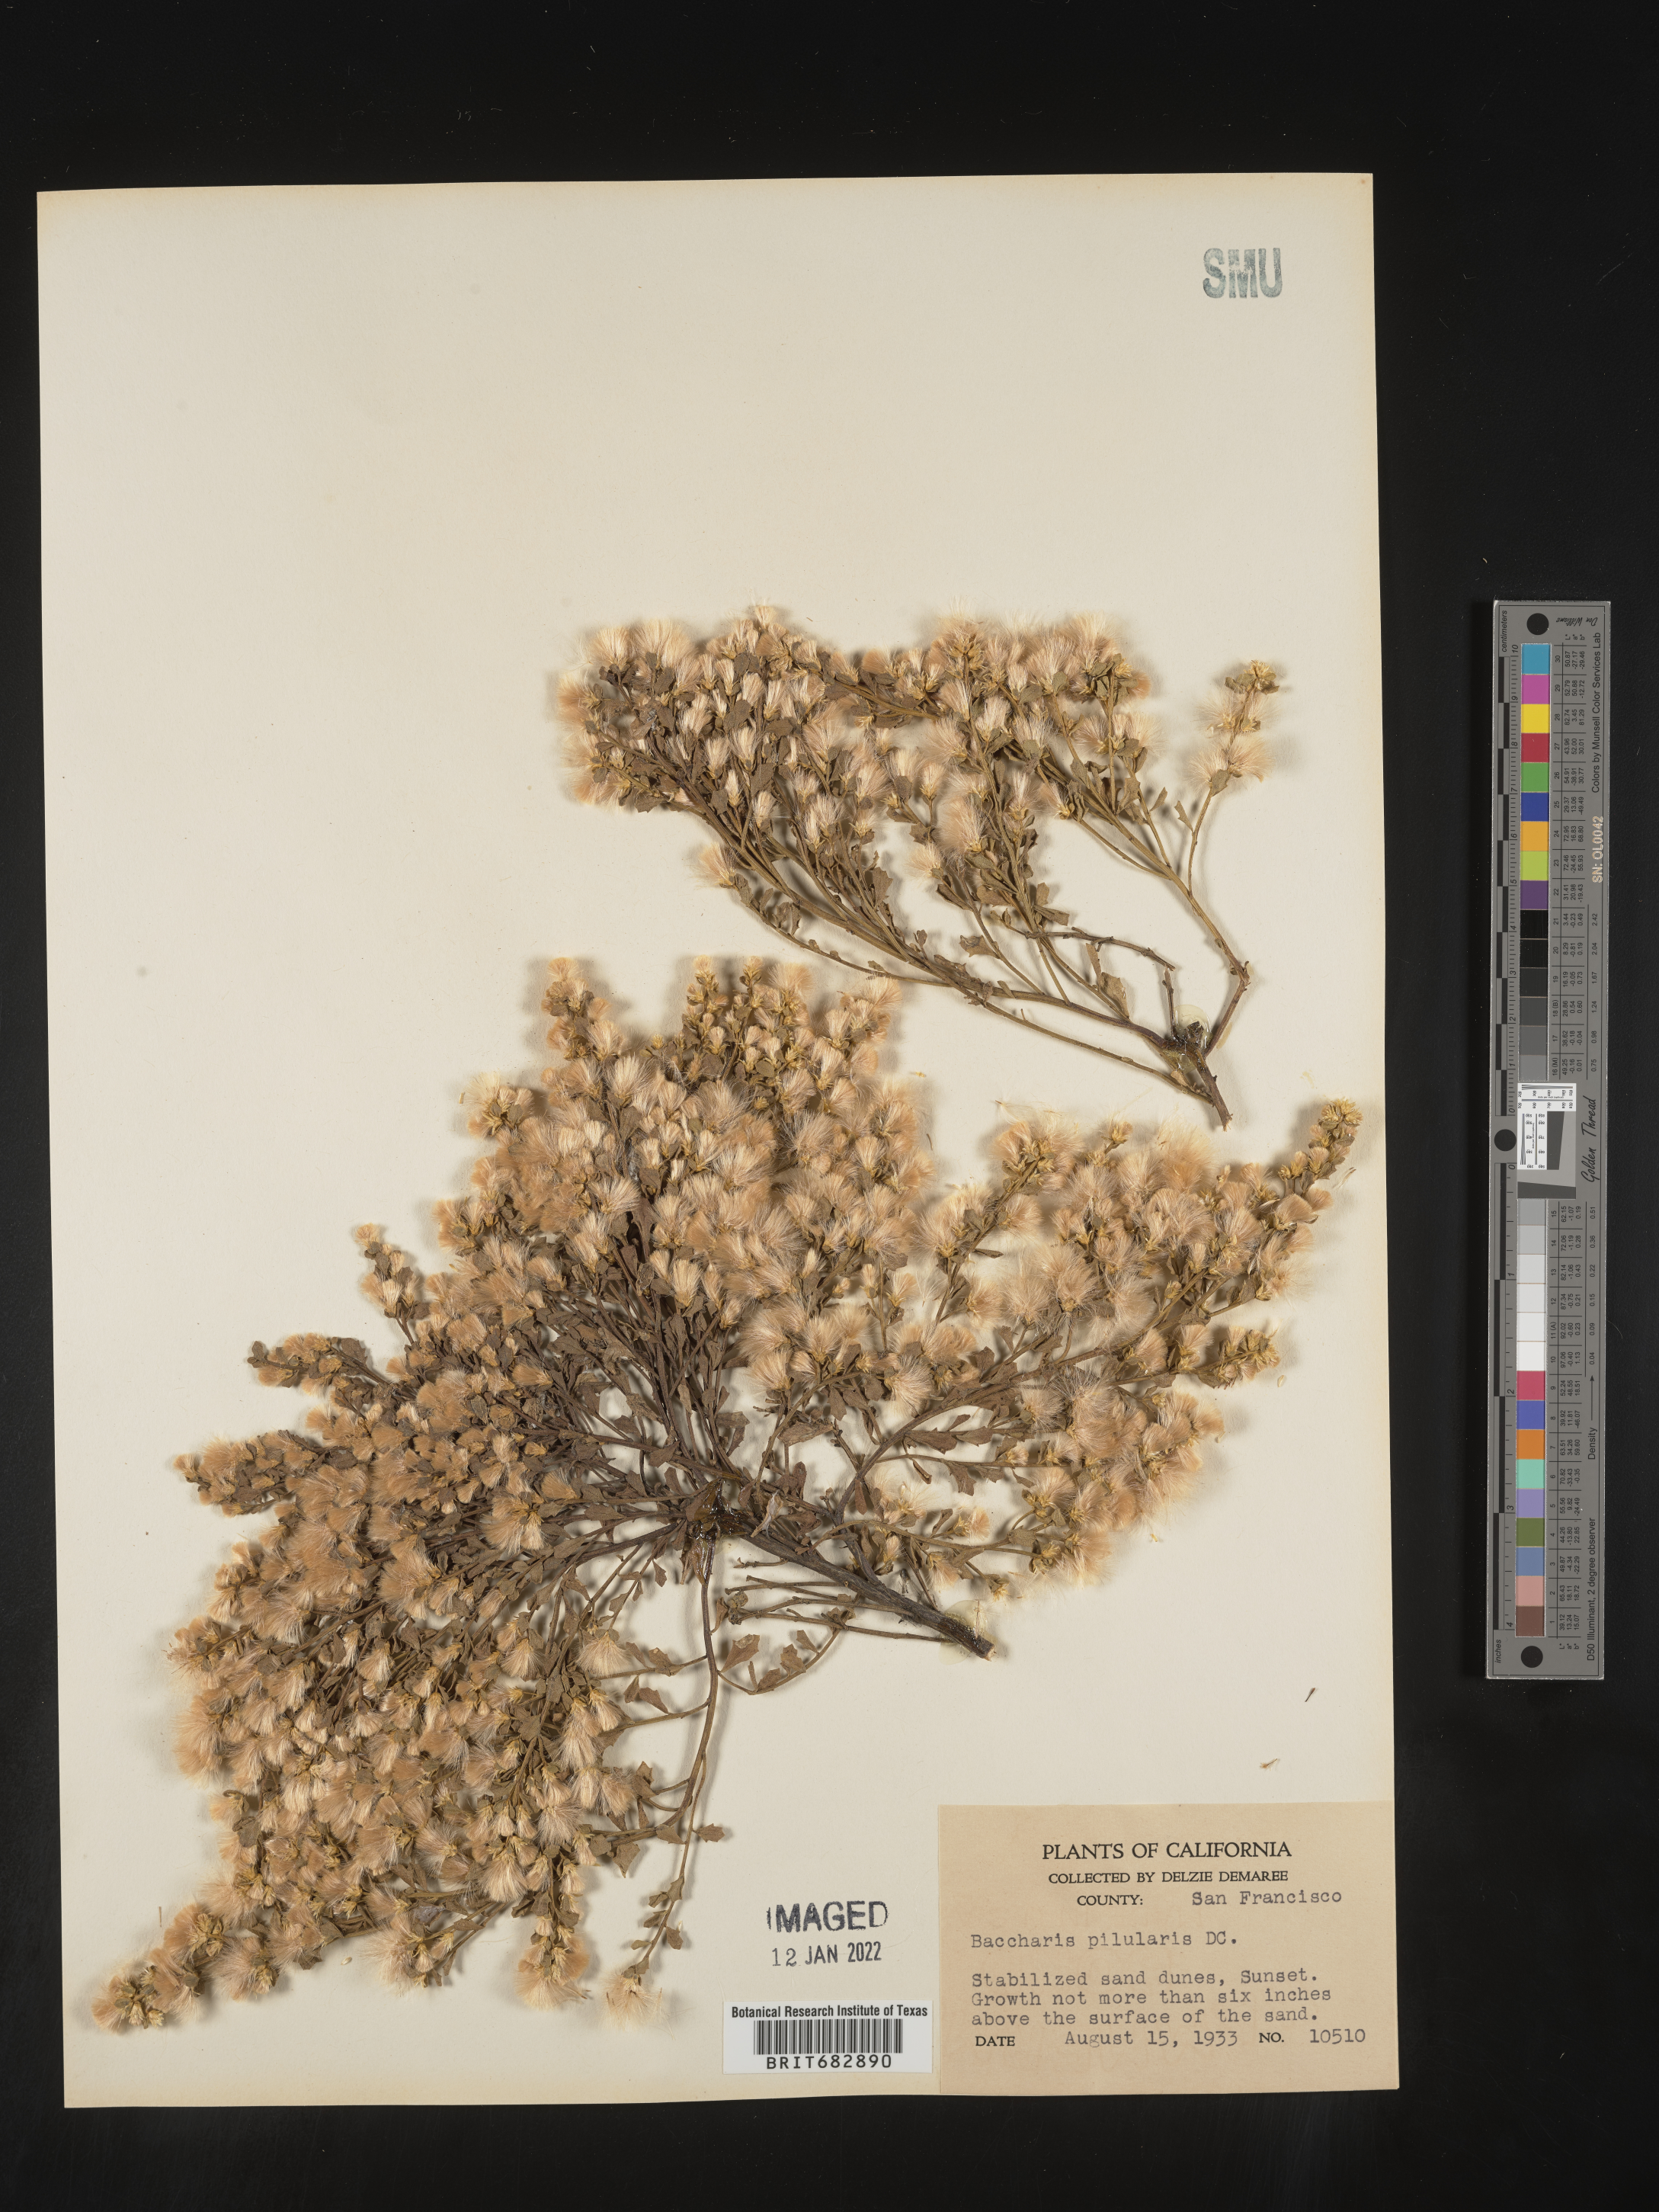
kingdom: Plantae
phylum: Tracheophyta
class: Magnoliopsida
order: Asterales
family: Asteraceae
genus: Baccharis
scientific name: Baccharis pilularis
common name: Coyotebrush
